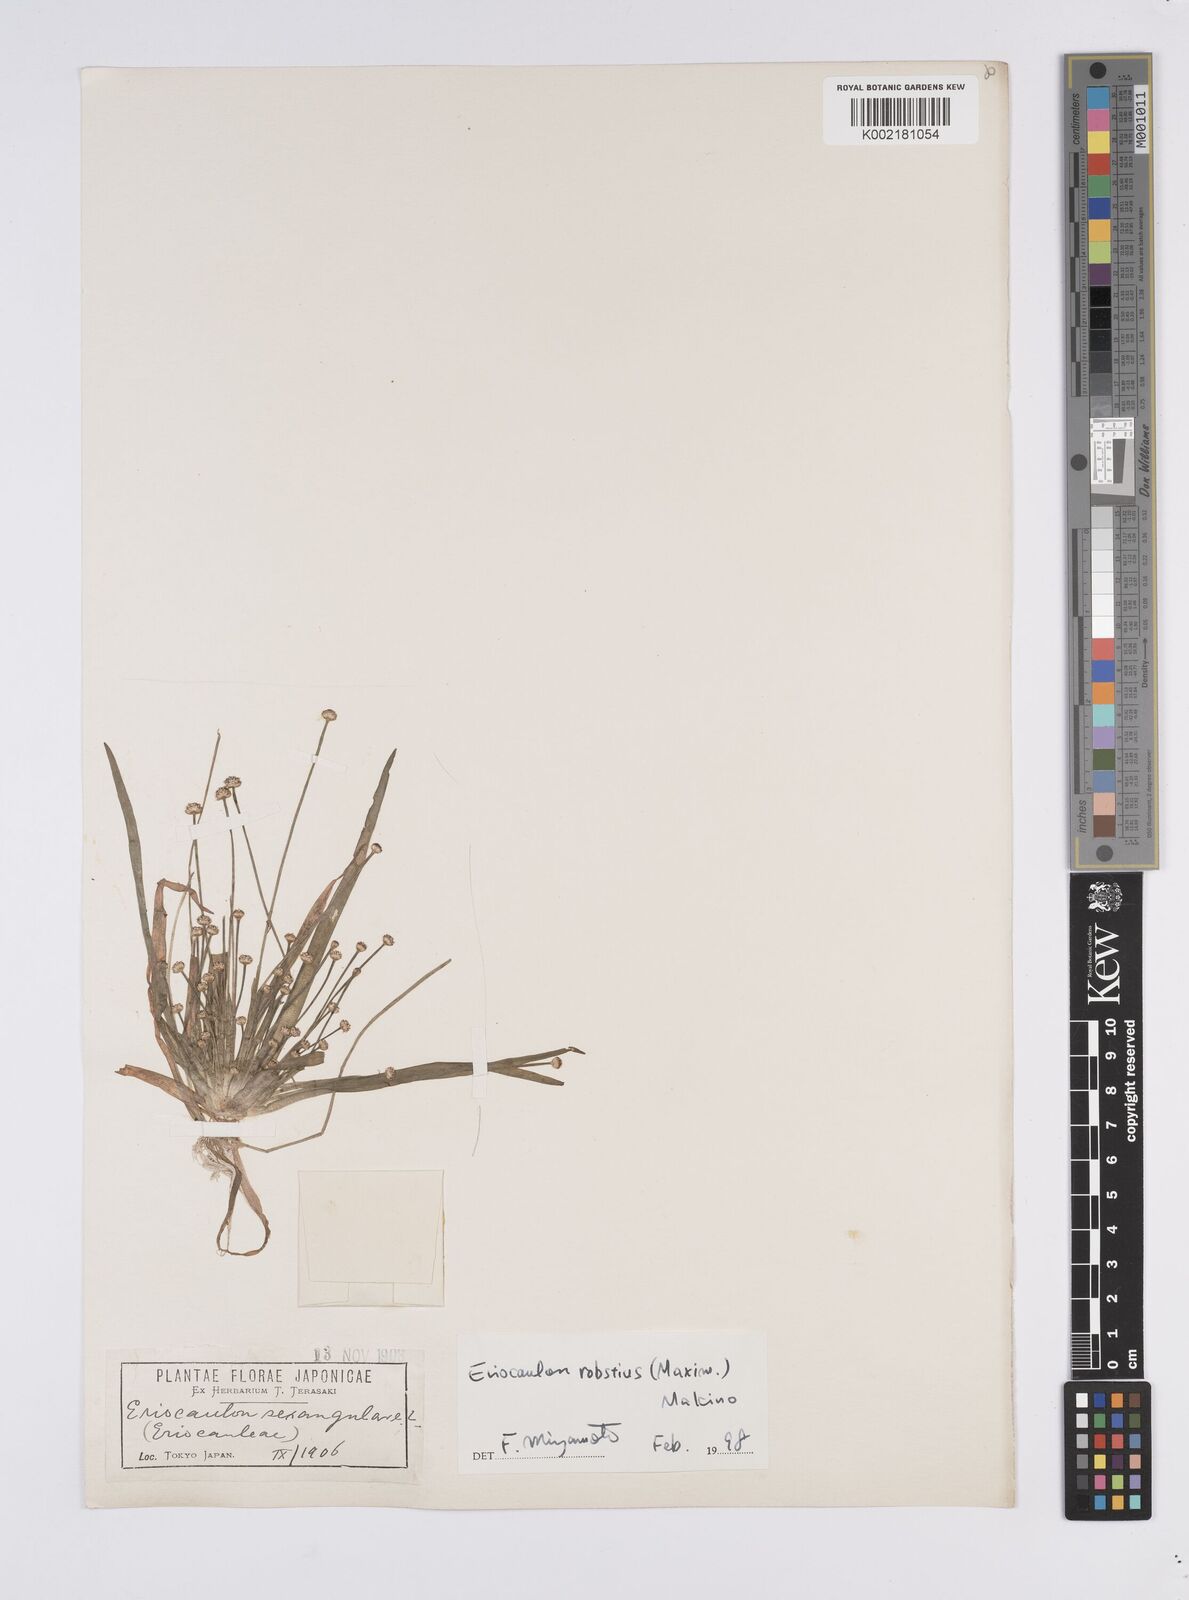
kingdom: Plantae
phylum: Tracheophyta
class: Liliopsida
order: Poales
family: Eriocaulaceae
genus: Eriocaulon
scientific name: Eriocaulon sexangulare
